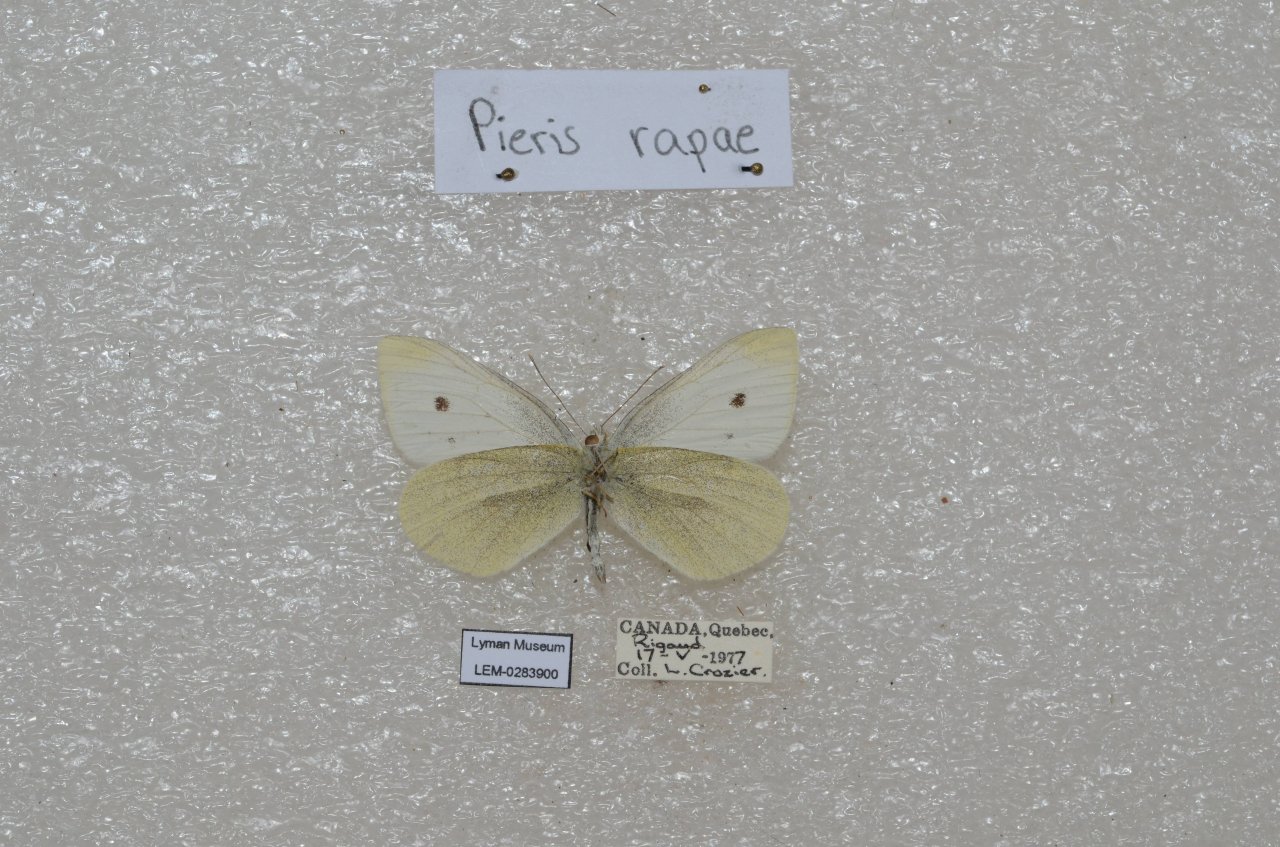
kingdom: Animalia
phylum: Arthropoda
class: Insecta
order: Lepidoptera
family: Pieridae
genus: Pieris
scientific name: Pieris rapae
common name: Cabbage White
